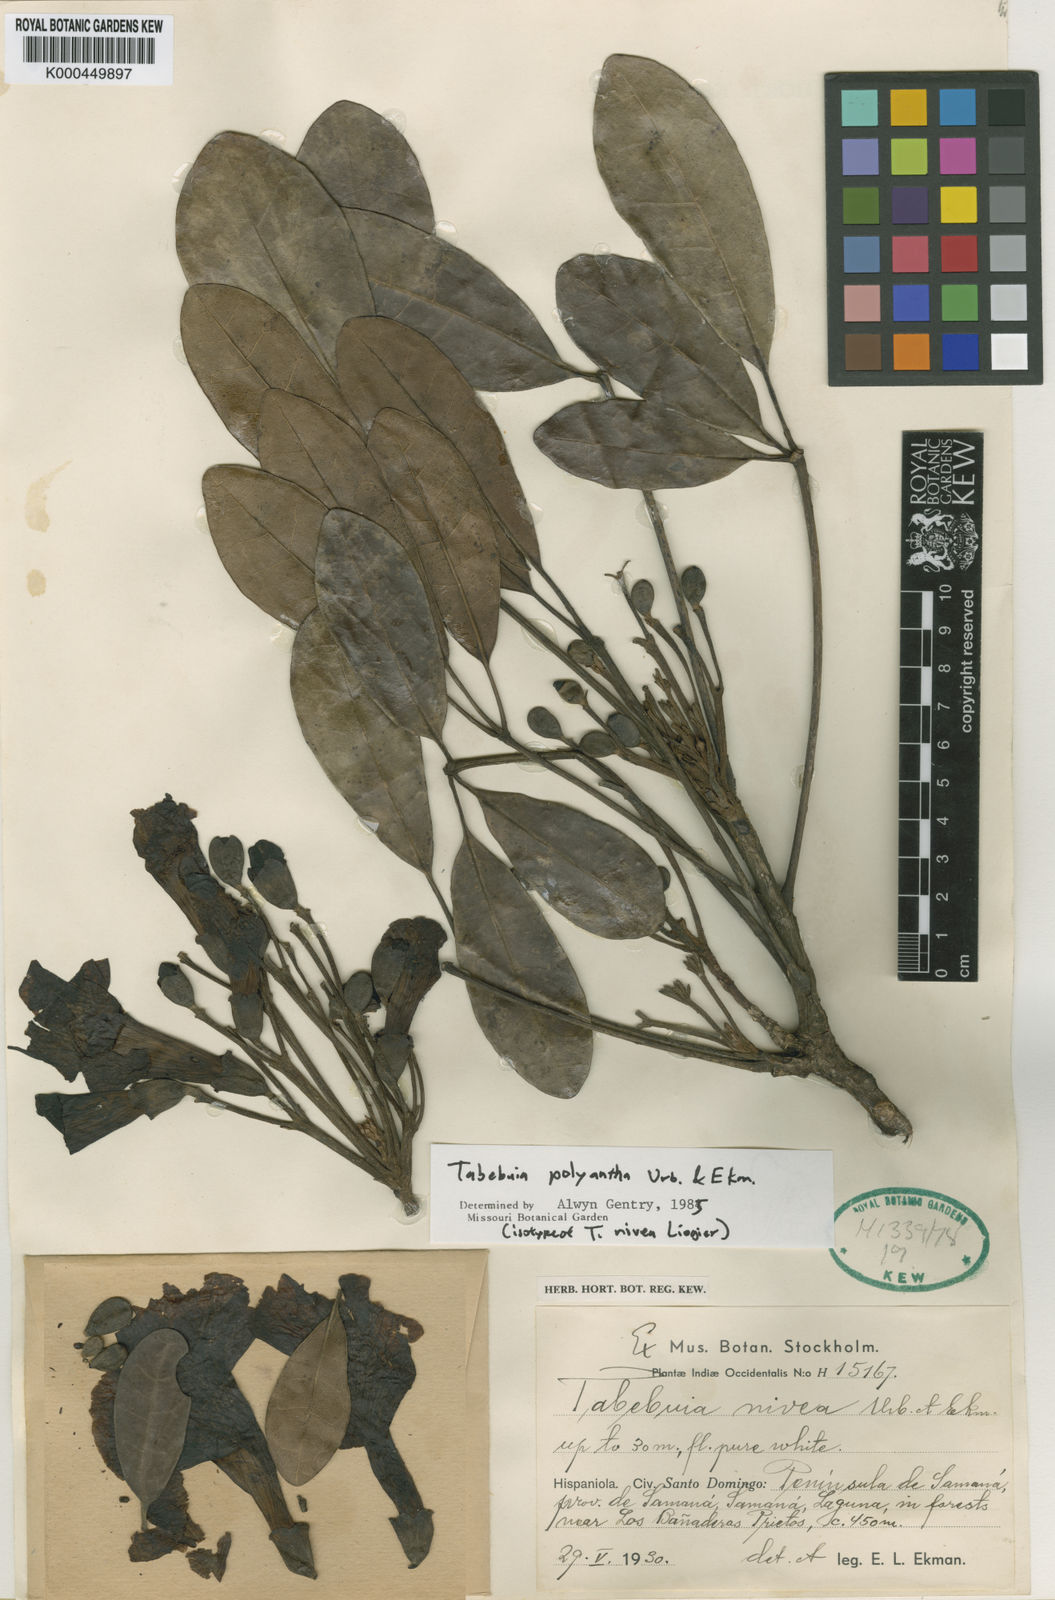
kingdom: Plantae
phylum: Tracheophyta
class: Magnoliopsida
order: Lamiales
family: Bignoniaceae
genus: Tabebuia
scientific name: Tabebuia polyantha
